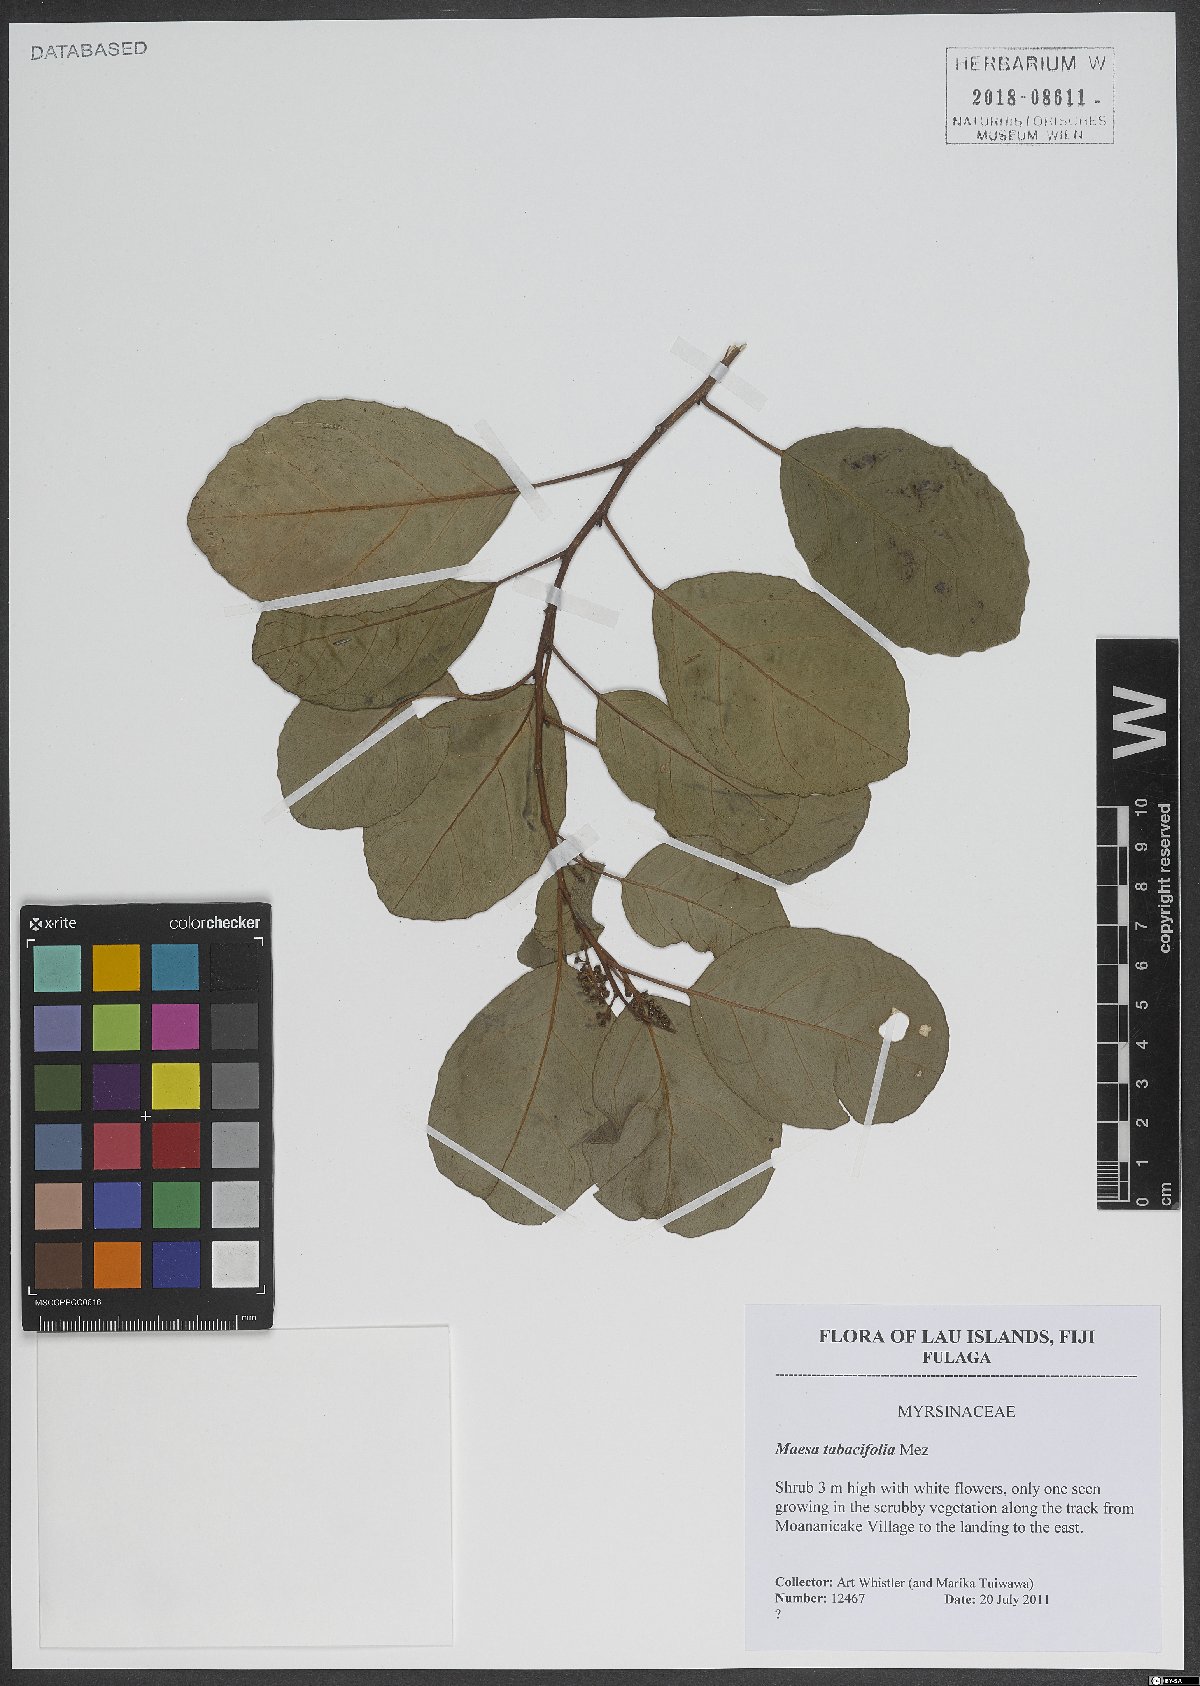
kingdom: Plantae
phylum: Tracheophyta
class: Magnoliopsida
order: Ericales
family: Primulaceae
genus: Maesa
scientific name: Maesa tabacifolia
